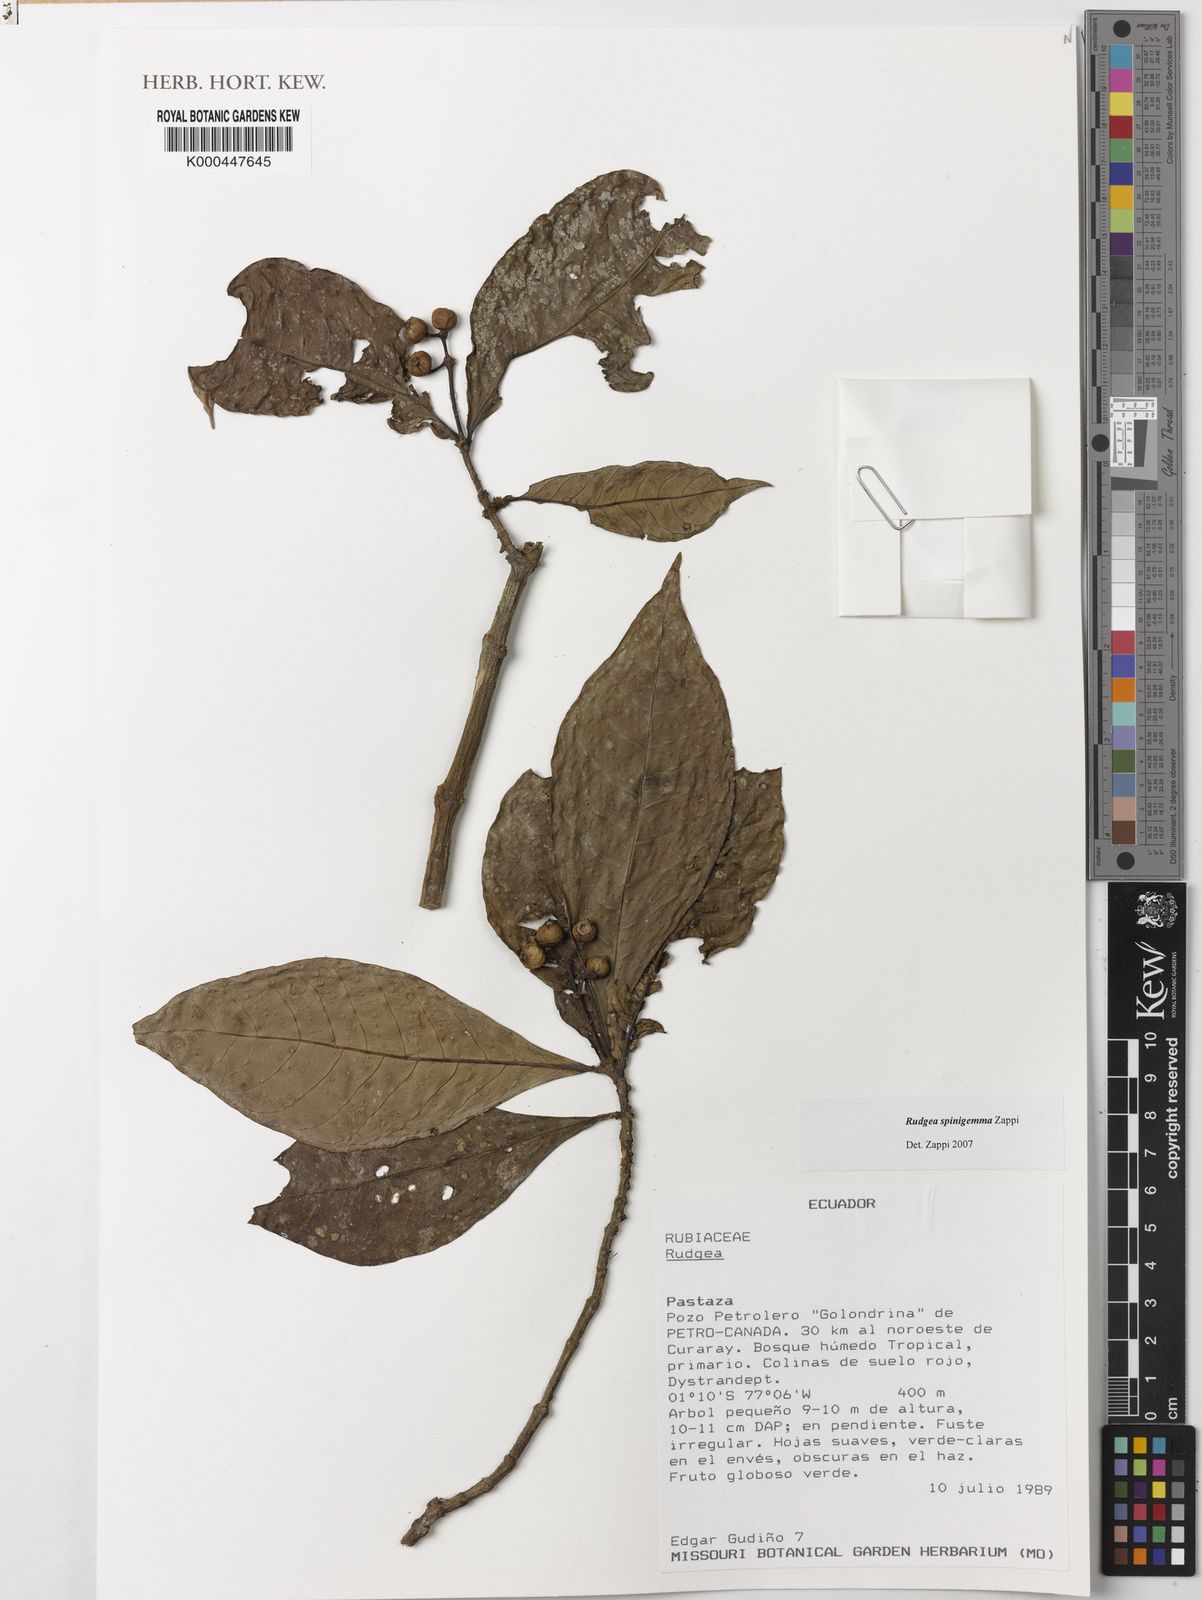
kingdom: Plantae
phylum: Tracheophyta
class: Magnoliopsida
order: Gentianales
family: Rubiaceae
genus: Rudgea
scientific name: Rudgea spinigemma
